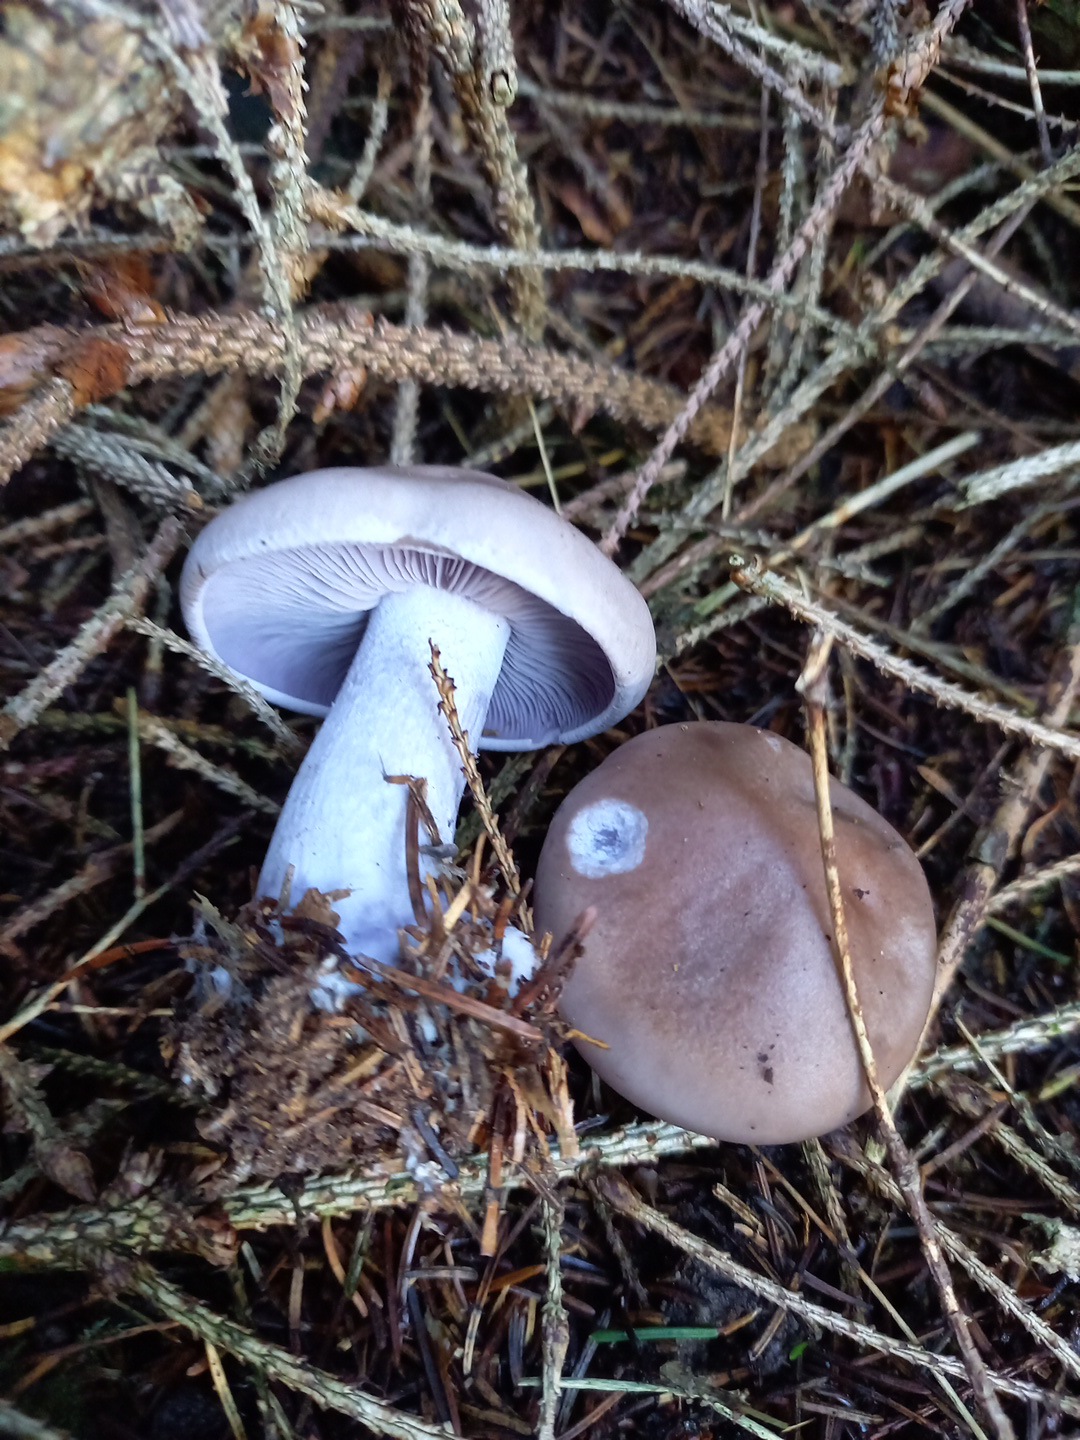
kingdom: Fungi
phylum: Basidiomycota
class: Agaricomycetes
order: Agaricales
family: Tricholomataceae
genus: Lepista
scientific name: Lepista nuda
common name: violet hekseringshat
